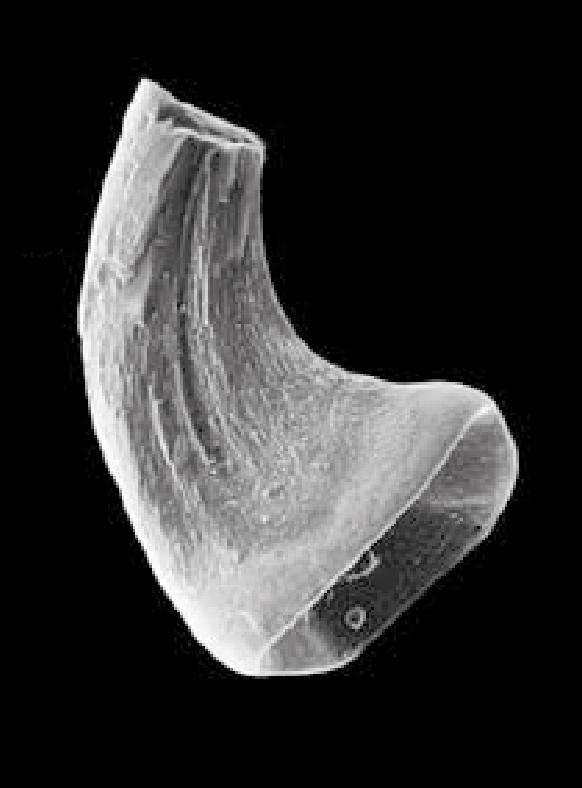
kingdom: Animalia
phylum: Chordata
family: Protopanderodontidae
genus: Variabiloconus
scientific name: Variabiloconus transiapeticus
